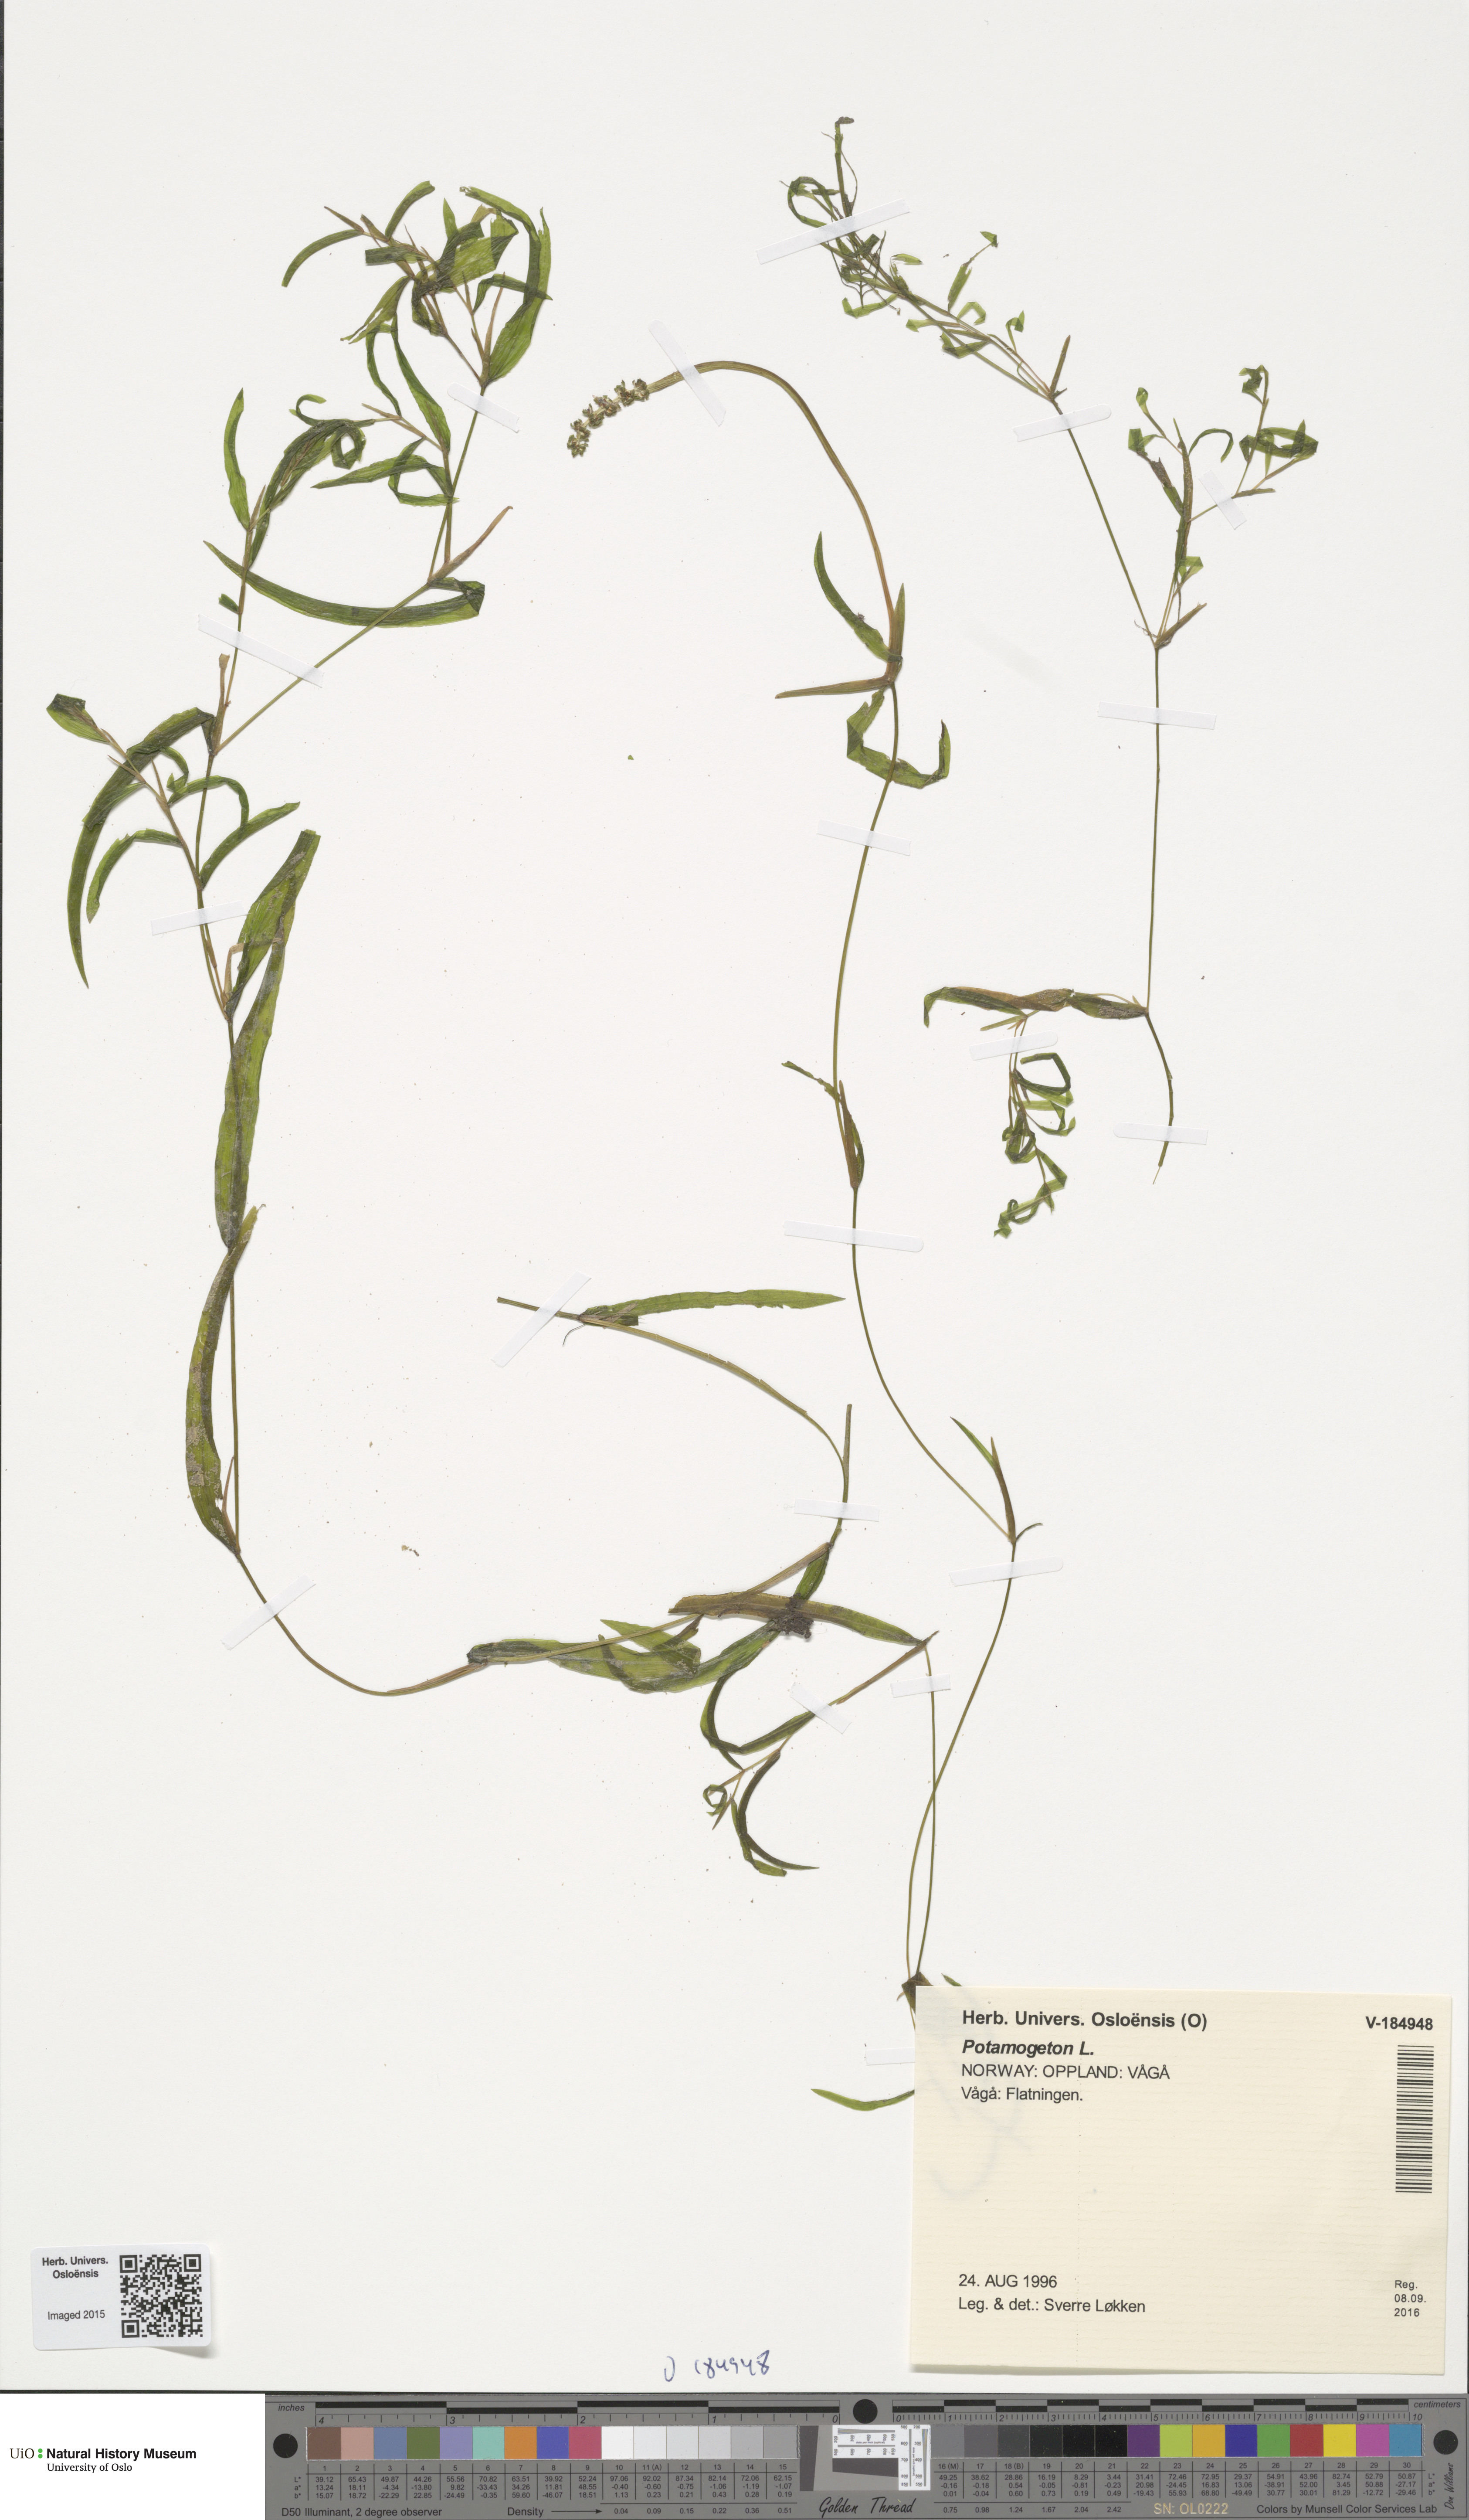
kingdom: Plantae
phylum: Tracheophyta
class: Liliopsida
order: Alismatales
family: Potamogetonaceae
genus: Potamogeton
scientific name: Potamogeton gramineus
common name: Various-leaved pondweed
